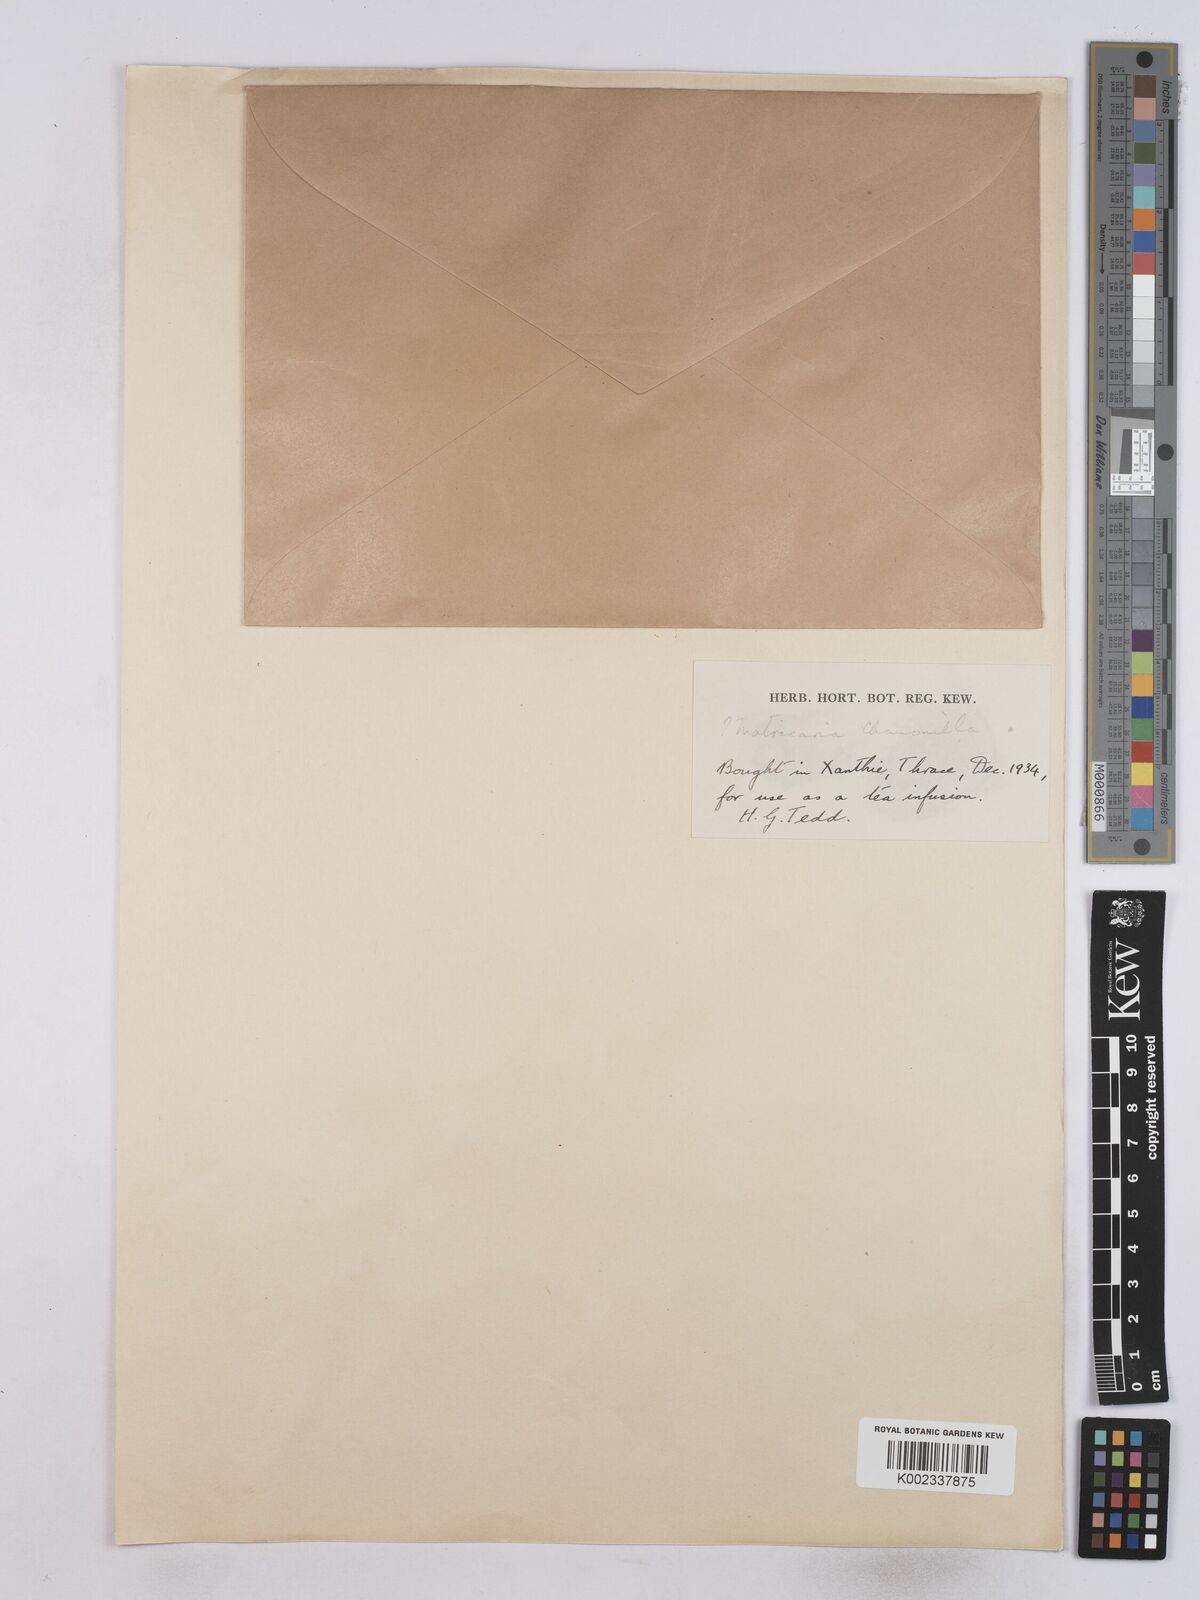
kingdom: Plantae
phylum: Tracheophyta
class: Magnoliopsida
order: Asterales
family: Asteraceae
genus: Matricaria
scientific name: Matricaria chamomilla
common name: Scented mayweed
